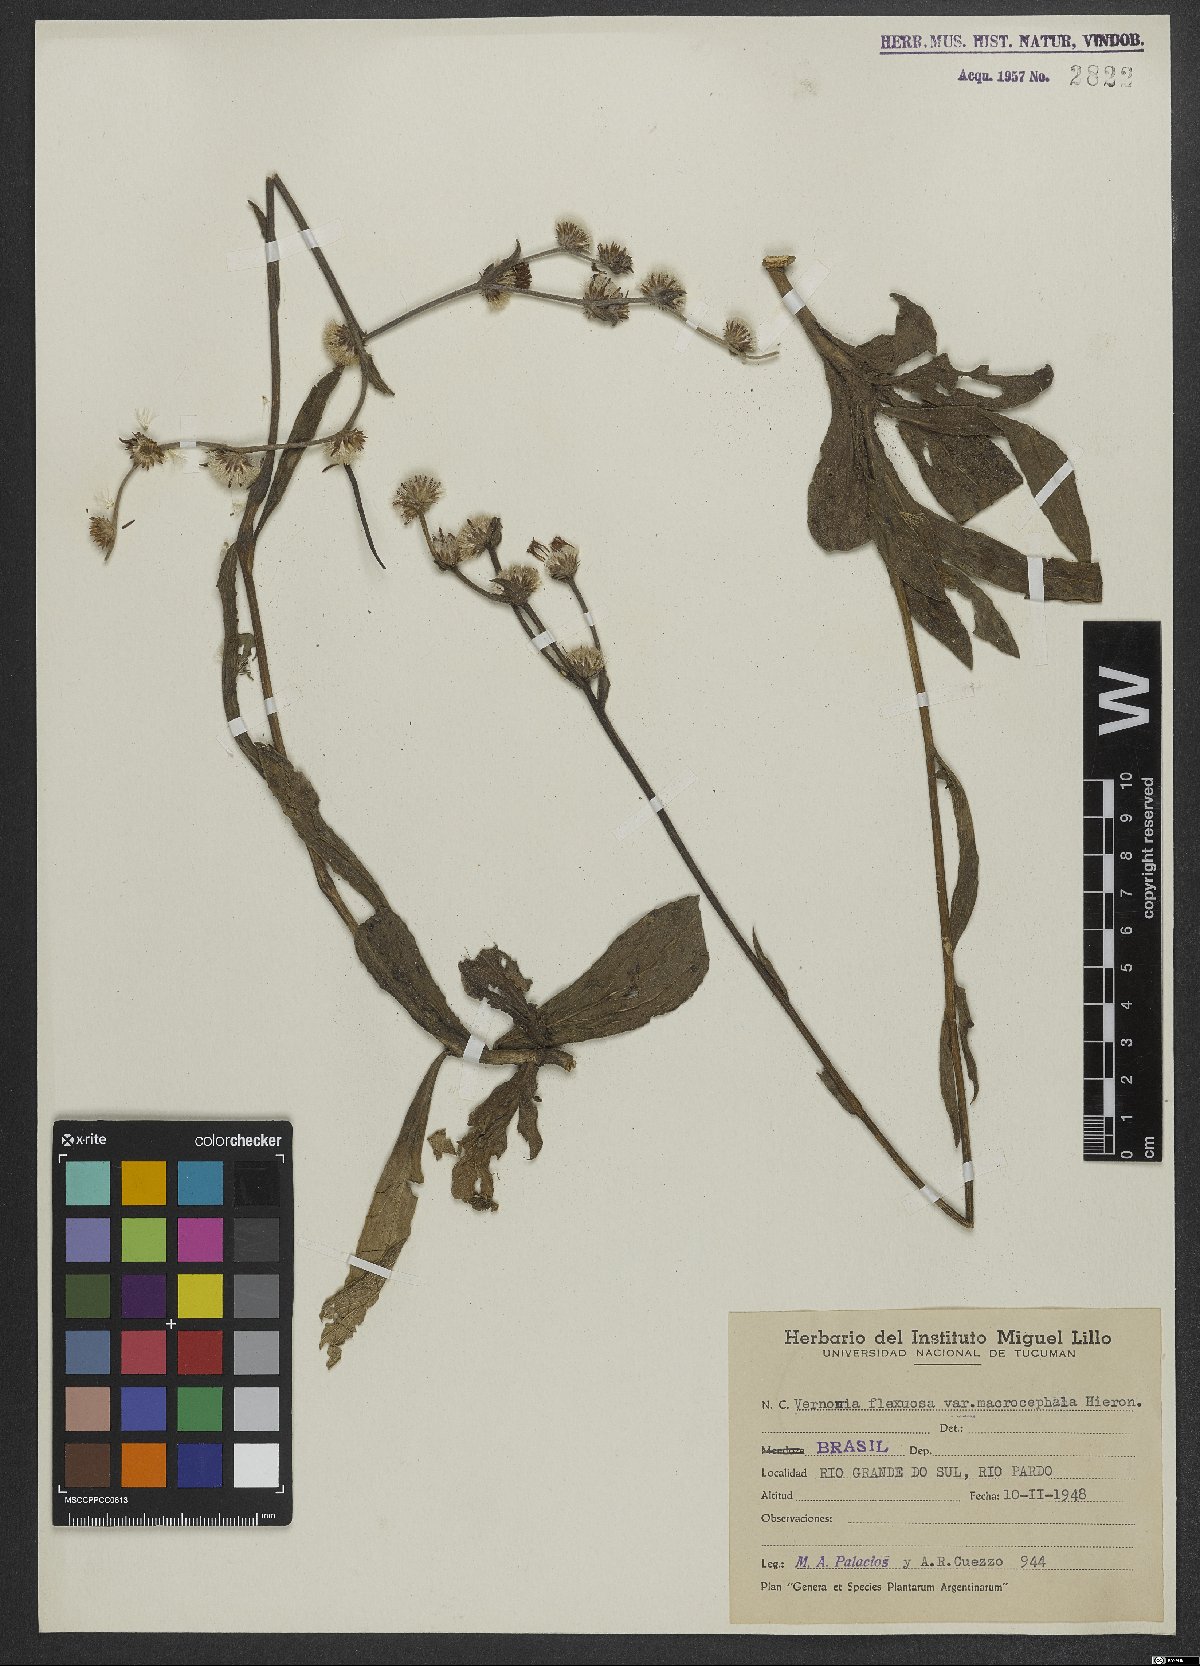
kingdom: Plantae
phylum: Tracheophyta
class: Magnoliopsida
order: Asterales
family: Asteraceae
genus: Chrysolaena
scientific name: Chrysolaena flexuosa
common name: Zig-zag vernonia
